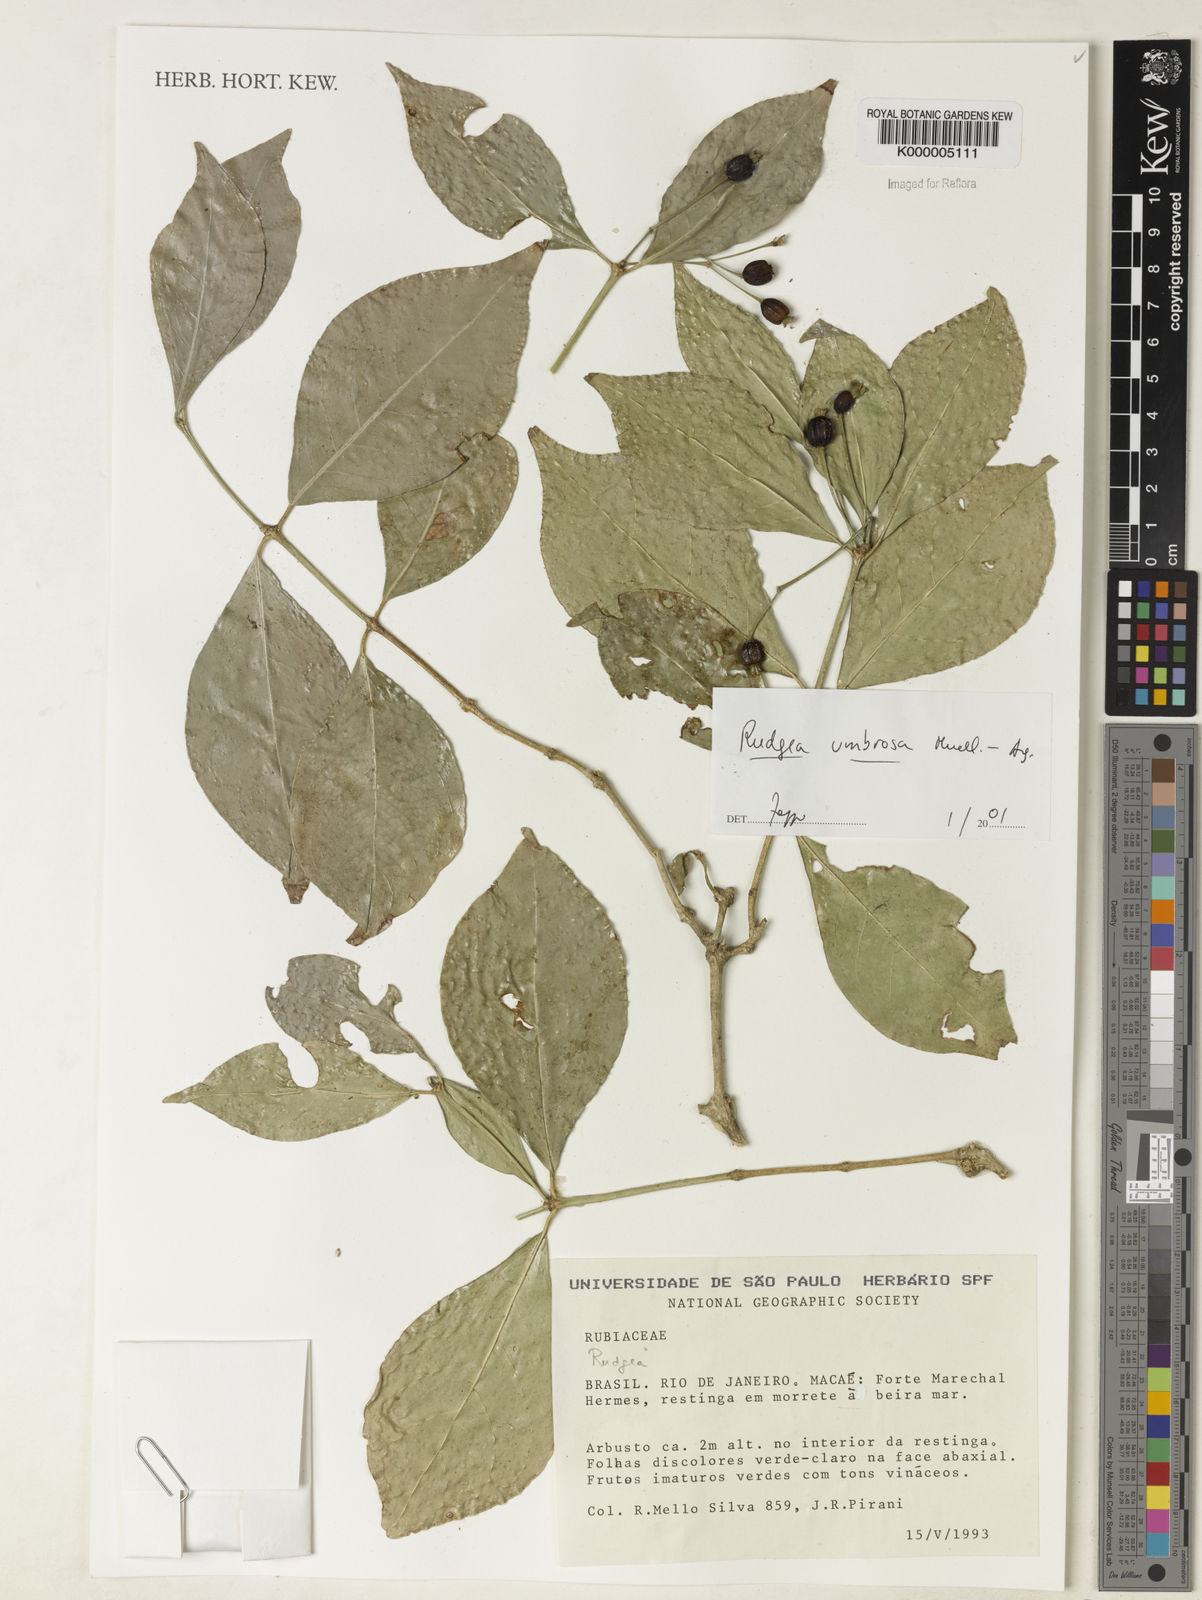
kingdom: Plantae
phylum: Tracheophyta
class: Magnoliopsida
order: Gentianales
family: Rubiaceae
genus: Rudgea
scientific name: Rudgea umbrosa
